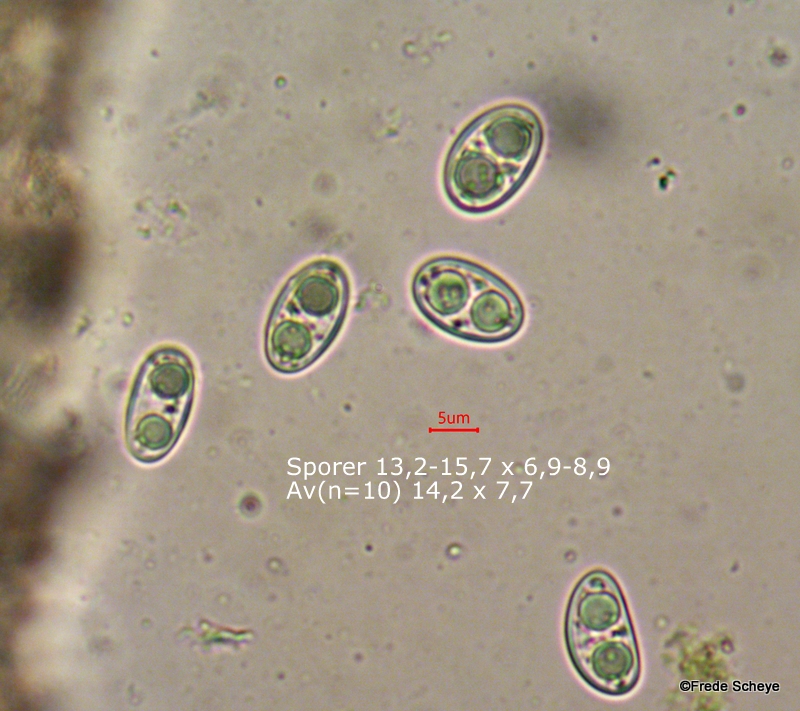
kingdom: Fungi
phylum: Ascomycota
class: Lecanoromycetes
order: Lecanorales
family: Lecanoraceae
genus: Lecanora
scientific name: Lecanora chlarotera
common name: brun kantskivelav
